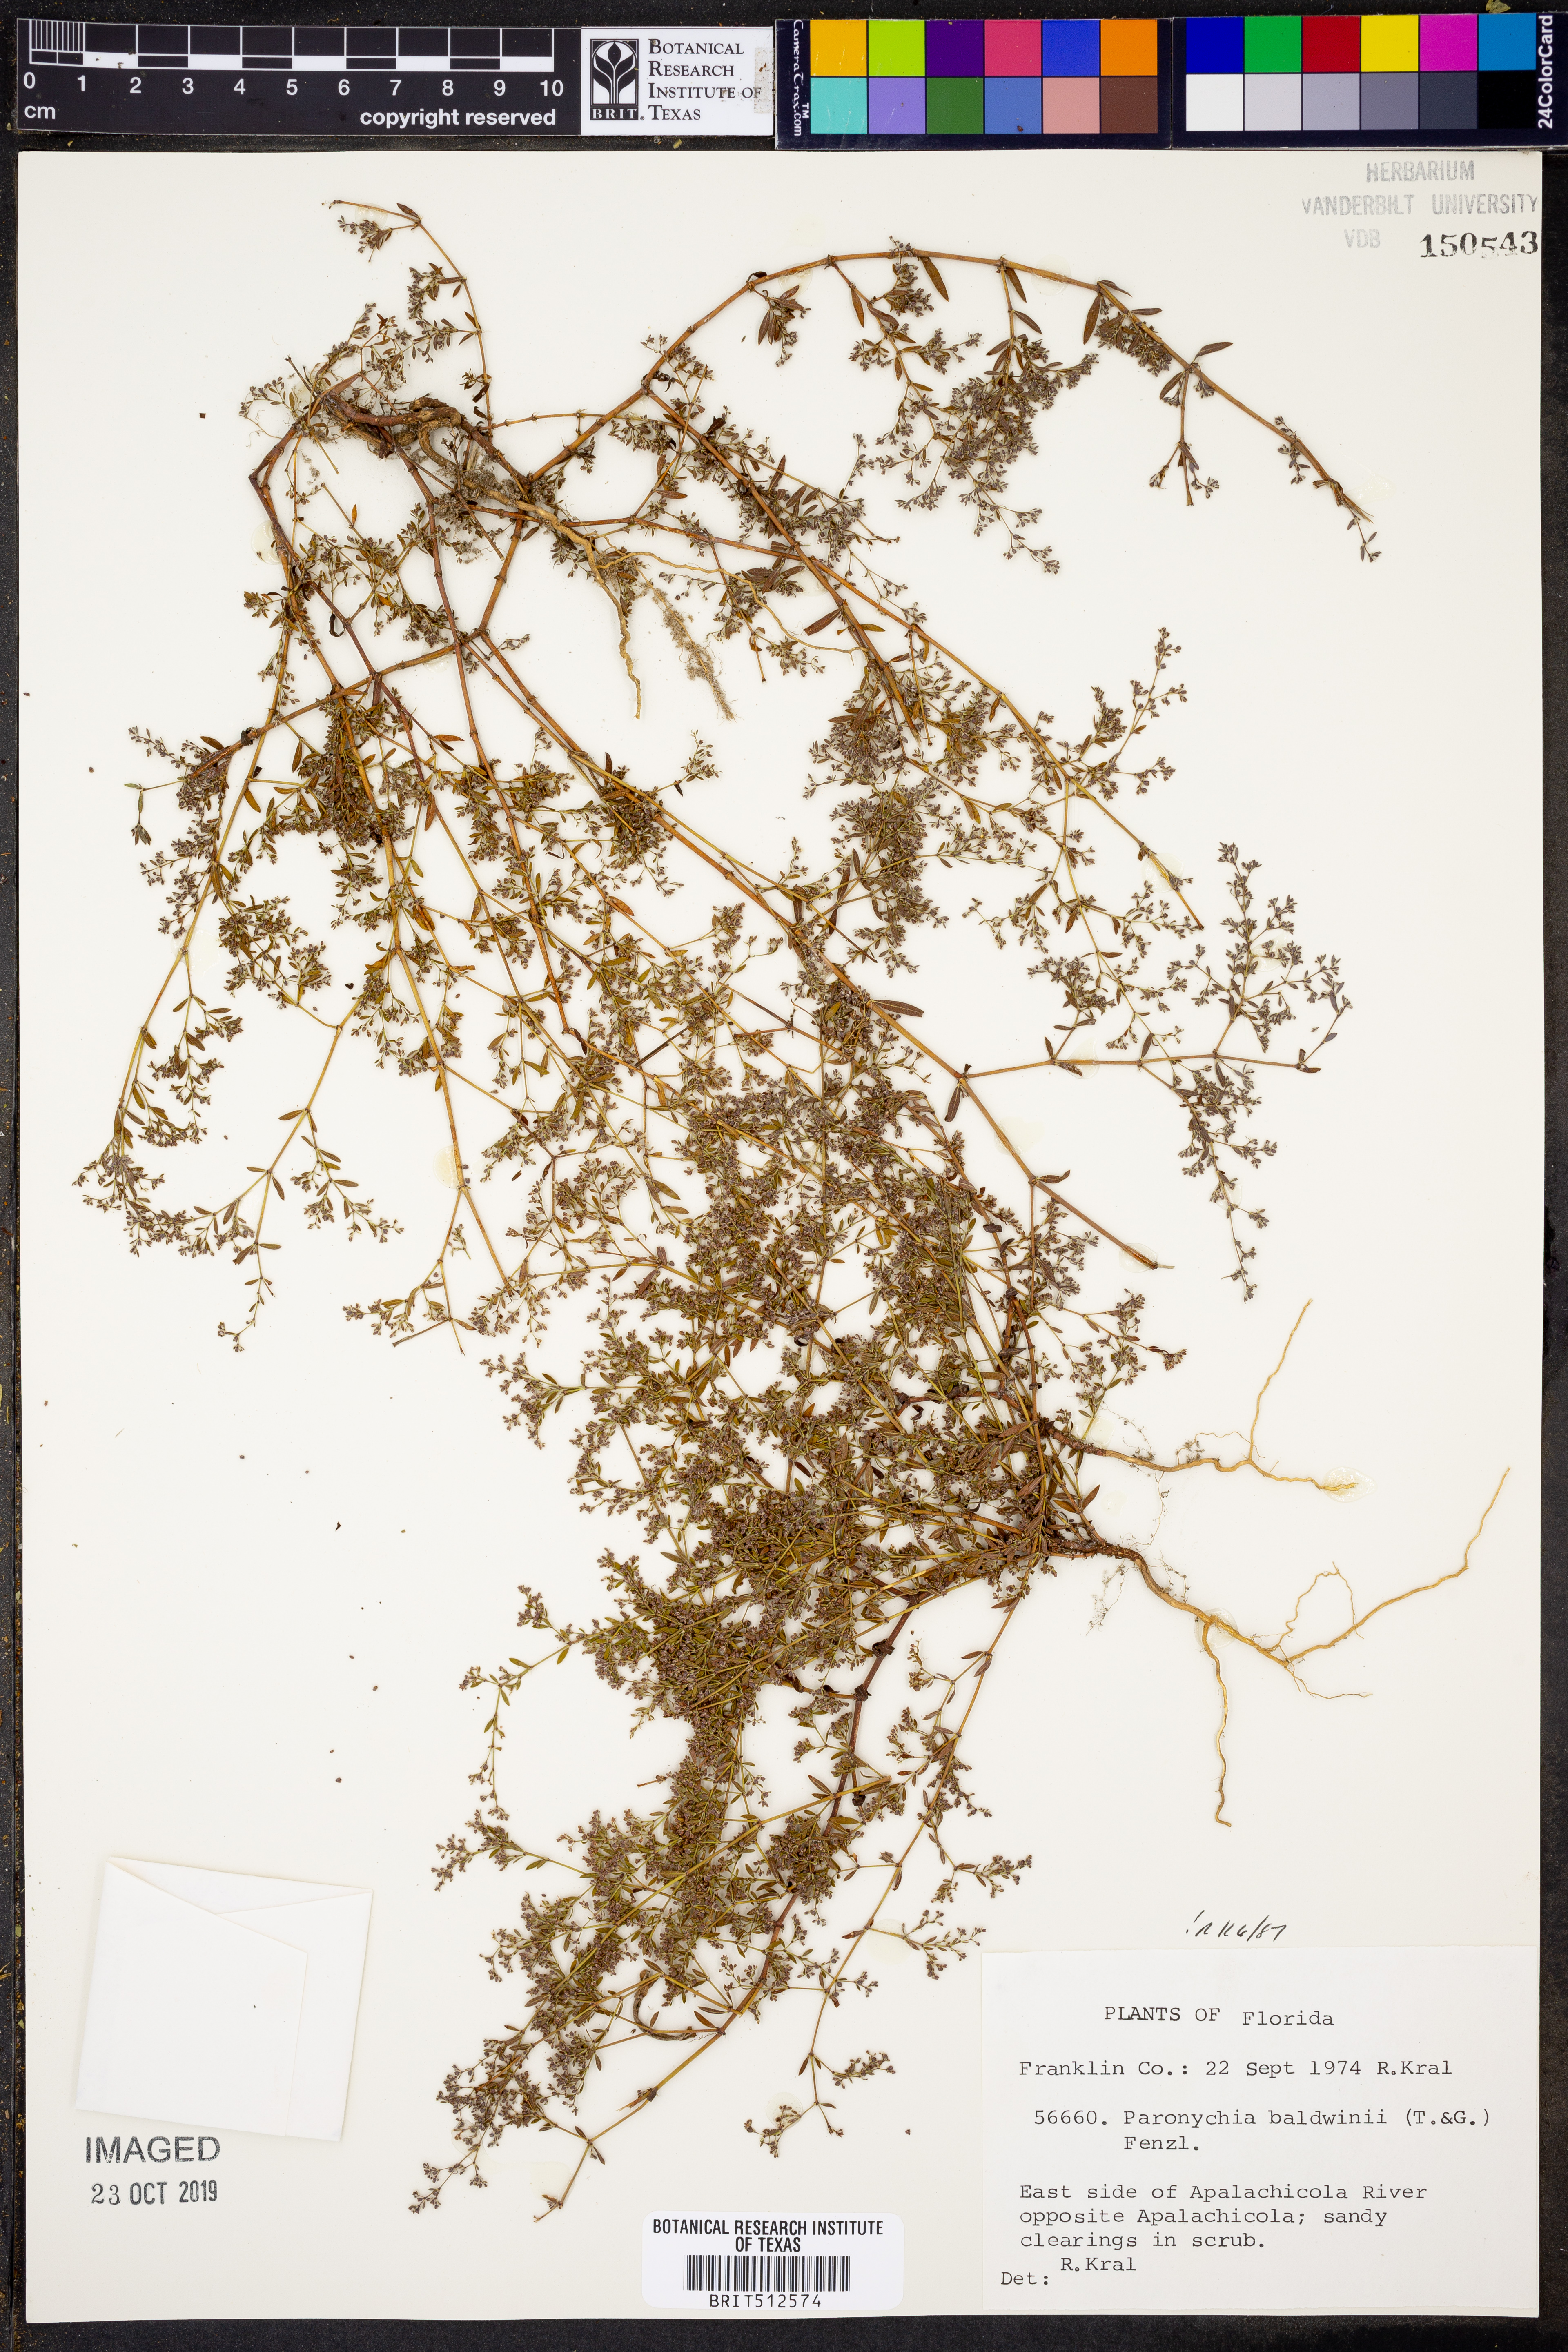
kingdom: Plantae
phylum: Tracheophyta
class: Magnoliopsida
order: Caryophyllales
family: Caryophyllaceae
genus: Paronychia
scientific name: Paronychia baldwinii
